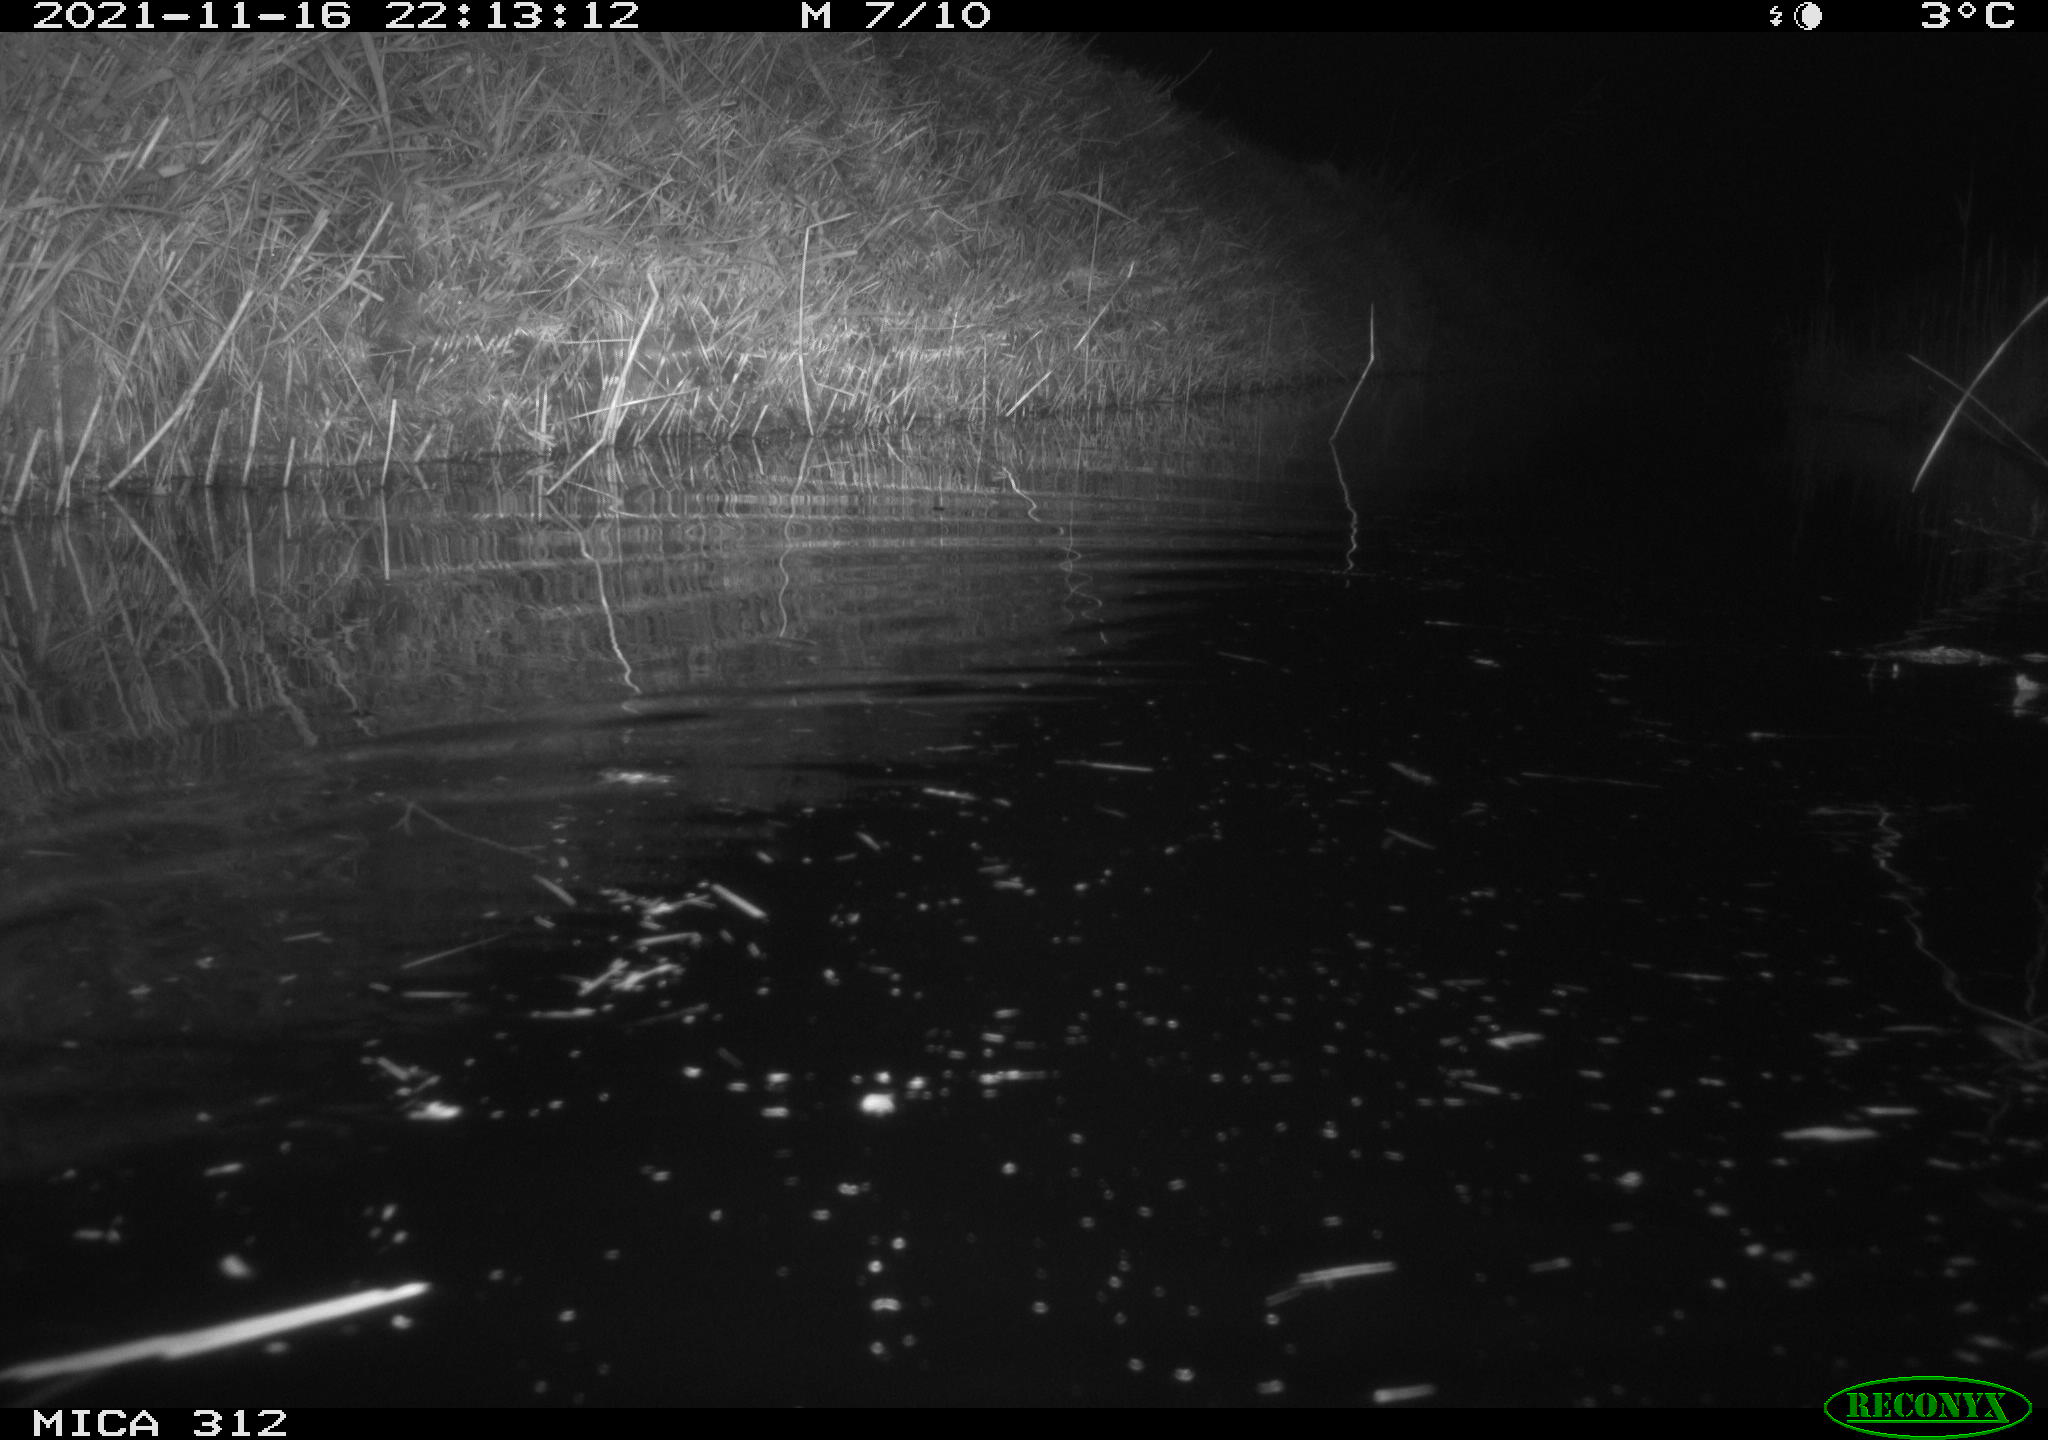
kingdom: Animalia
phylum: Chordata
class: Mammalia
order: Rodentia
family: Muridae
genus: Rattus
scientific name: Rattus norvegicus
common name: Brown rat
